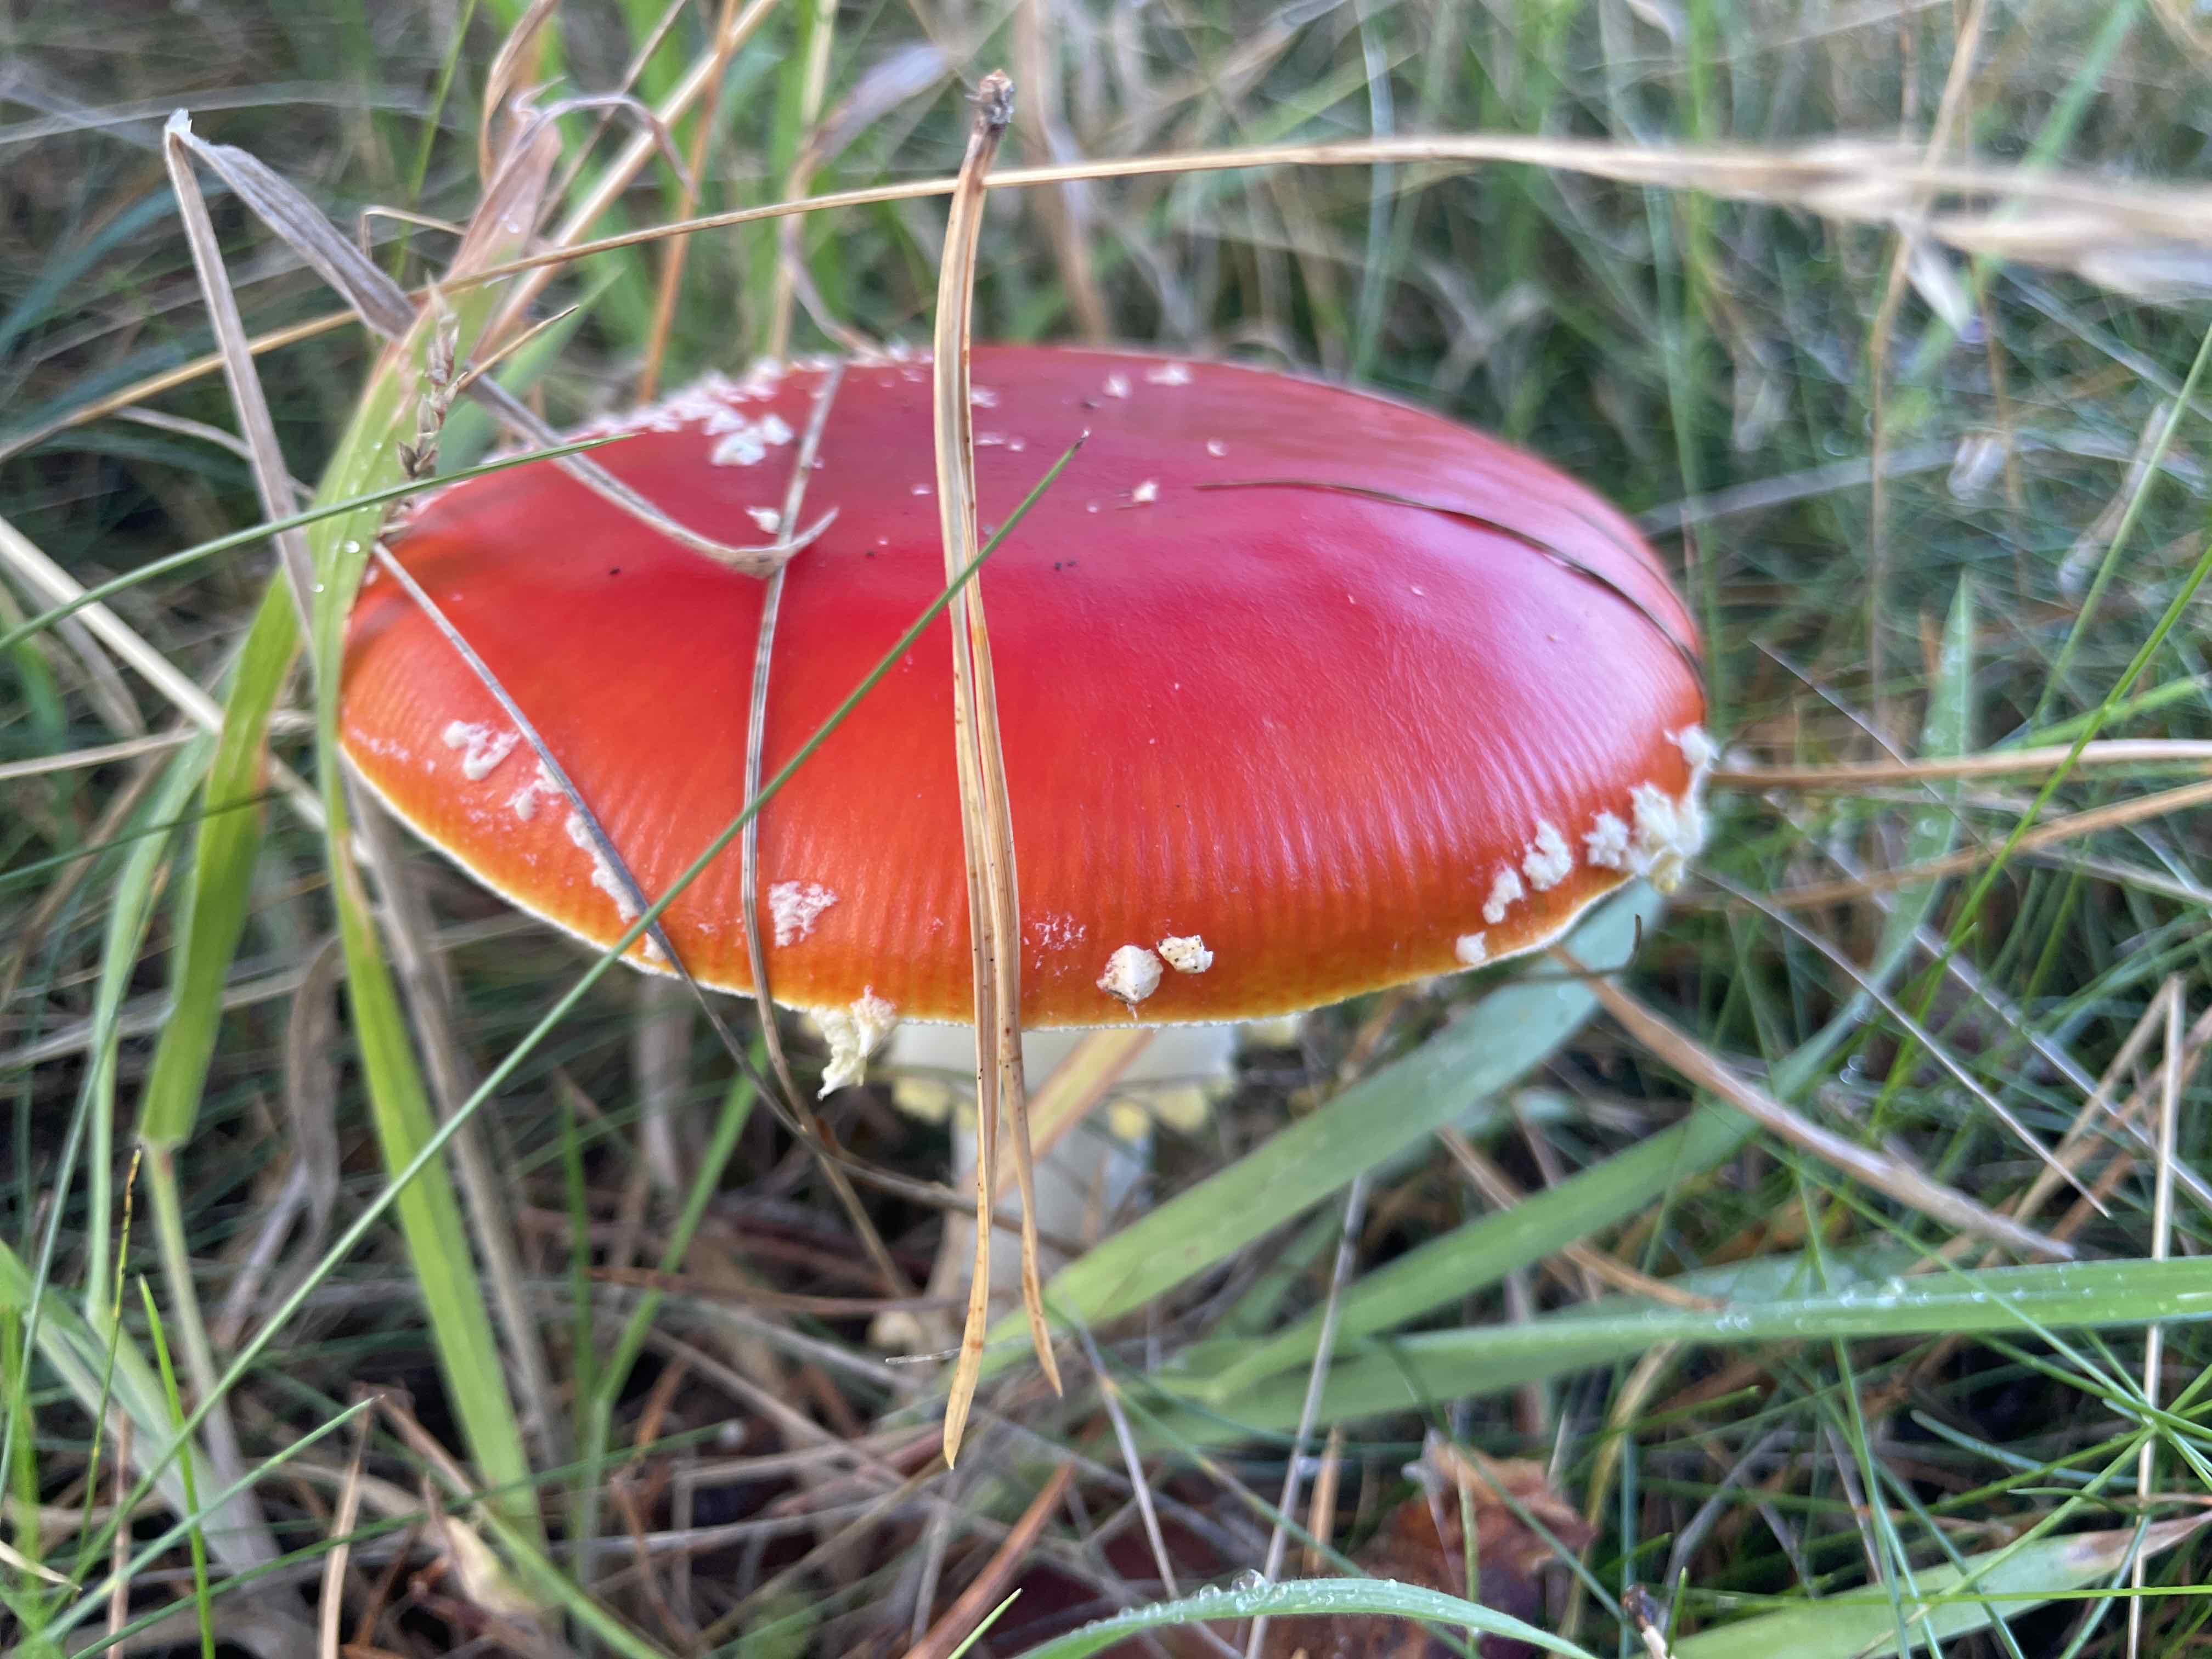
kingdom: Fungi
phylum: Basidiomycota
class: Agaricomycetes
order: Agaricales
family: Amanitaceae
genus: Amanita
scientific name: Amanita muscaria
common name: rød fluesvamp
